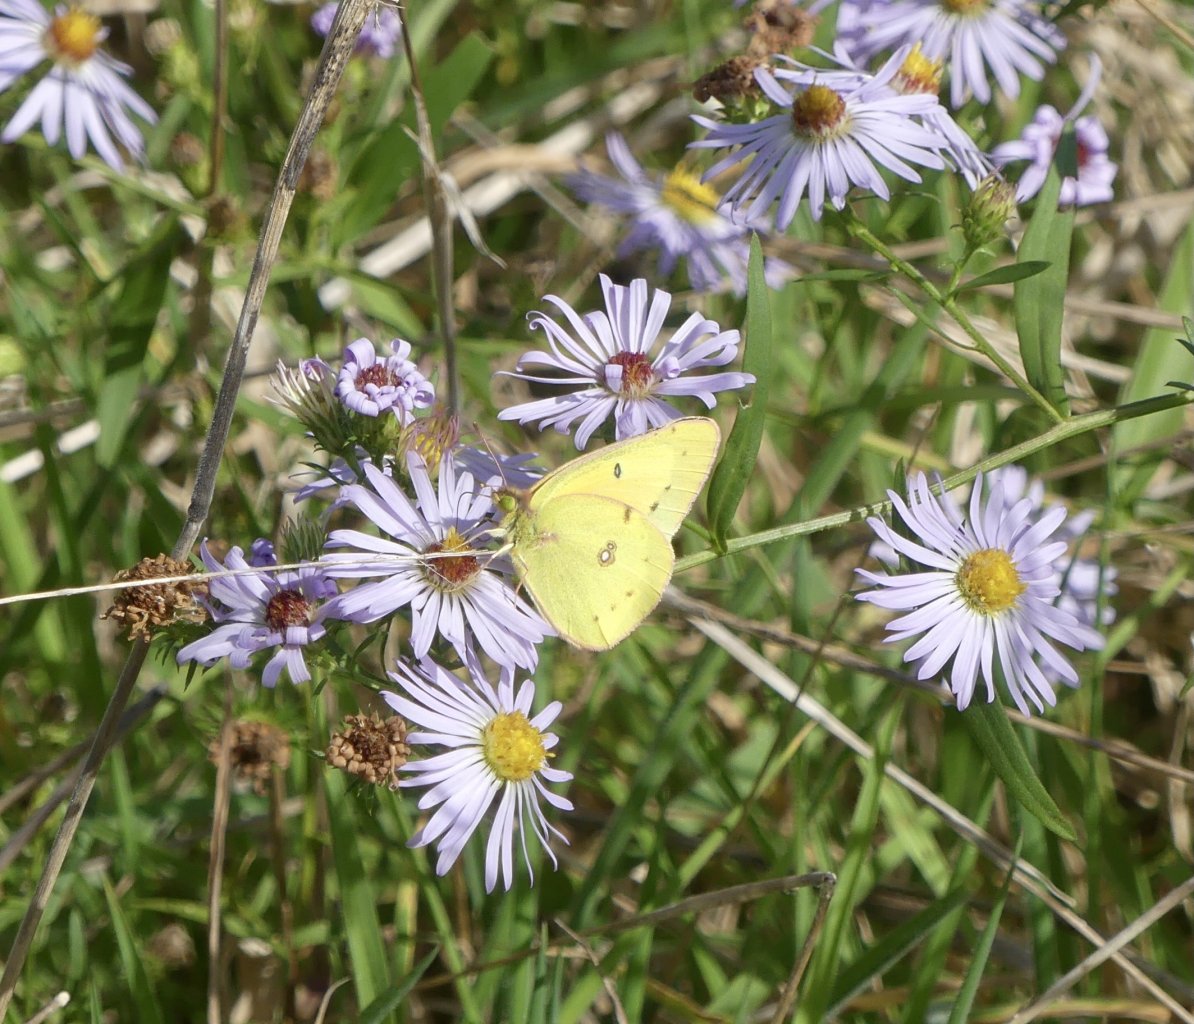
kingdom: Animalia
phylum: Arthropoda
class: Insecta
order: Lepidoptera
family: Pieridae
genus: Colias
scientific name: Colias eurytheme
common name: Orange Sulphur
